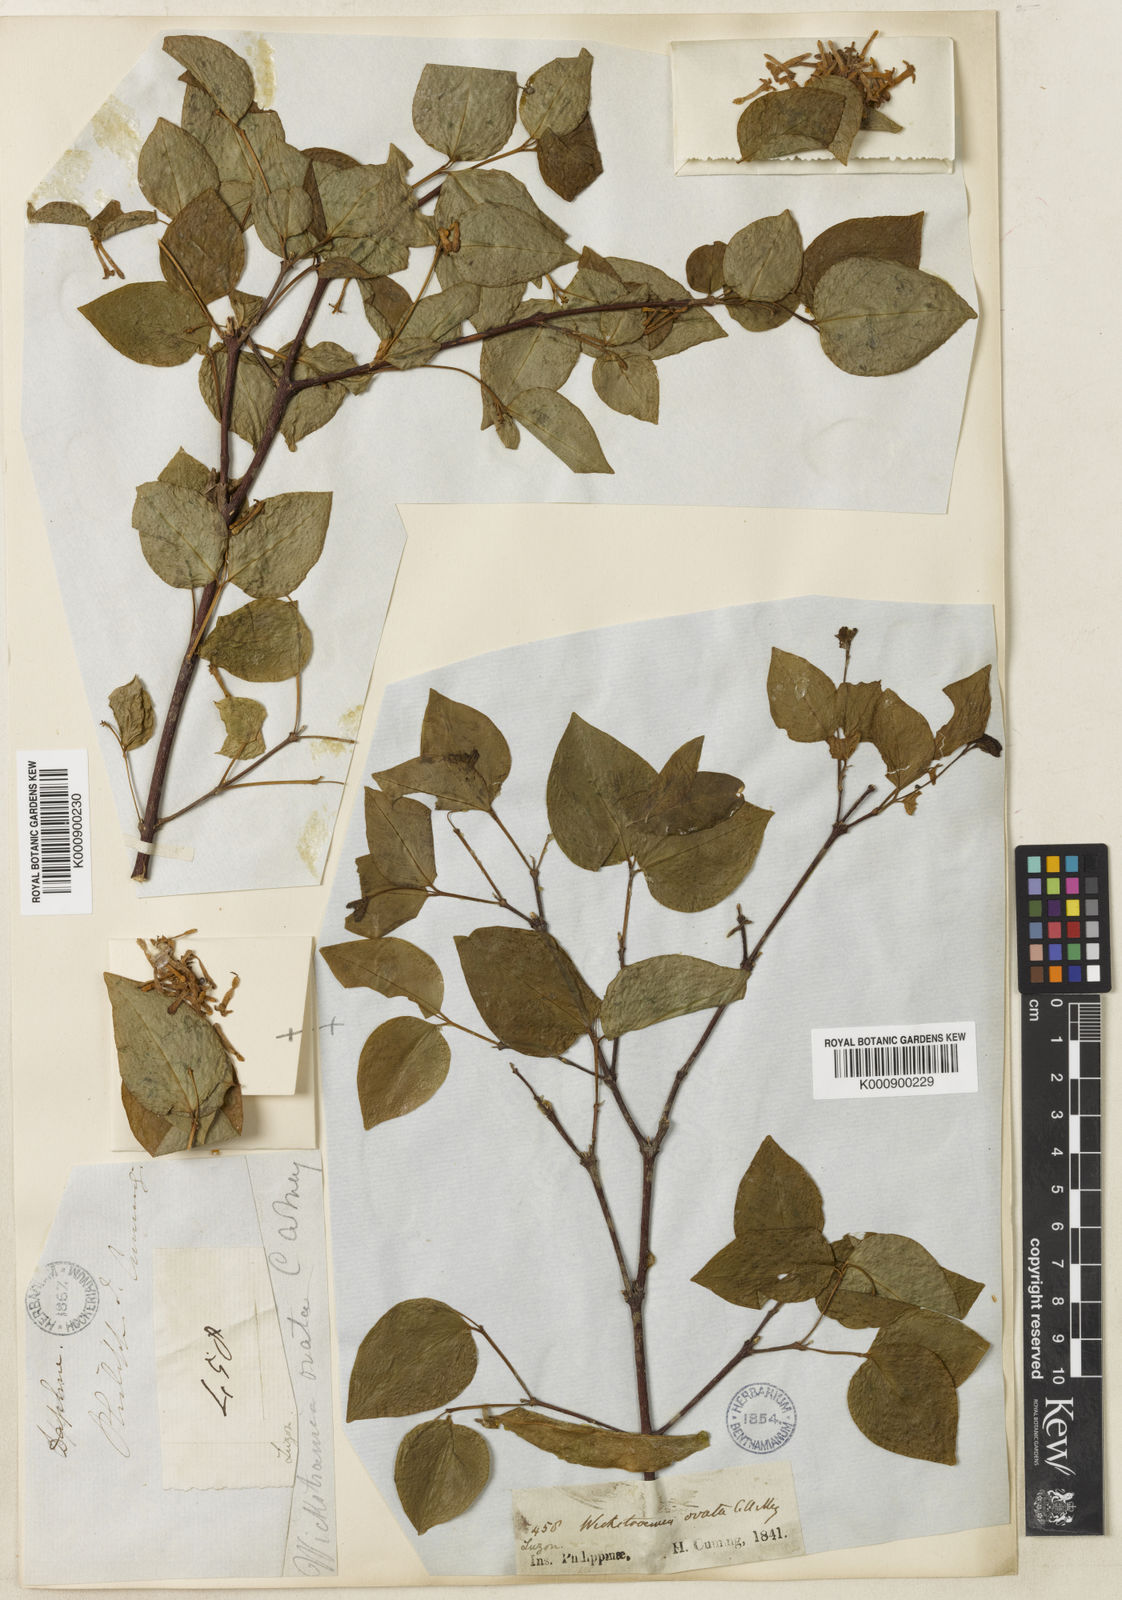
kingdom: Plantae
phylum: Tracheophyta
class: Magnoliopsida
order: Malvales
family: Thymelaeaceae
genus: Wikstroemia
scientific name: Wikstroemia ovata
